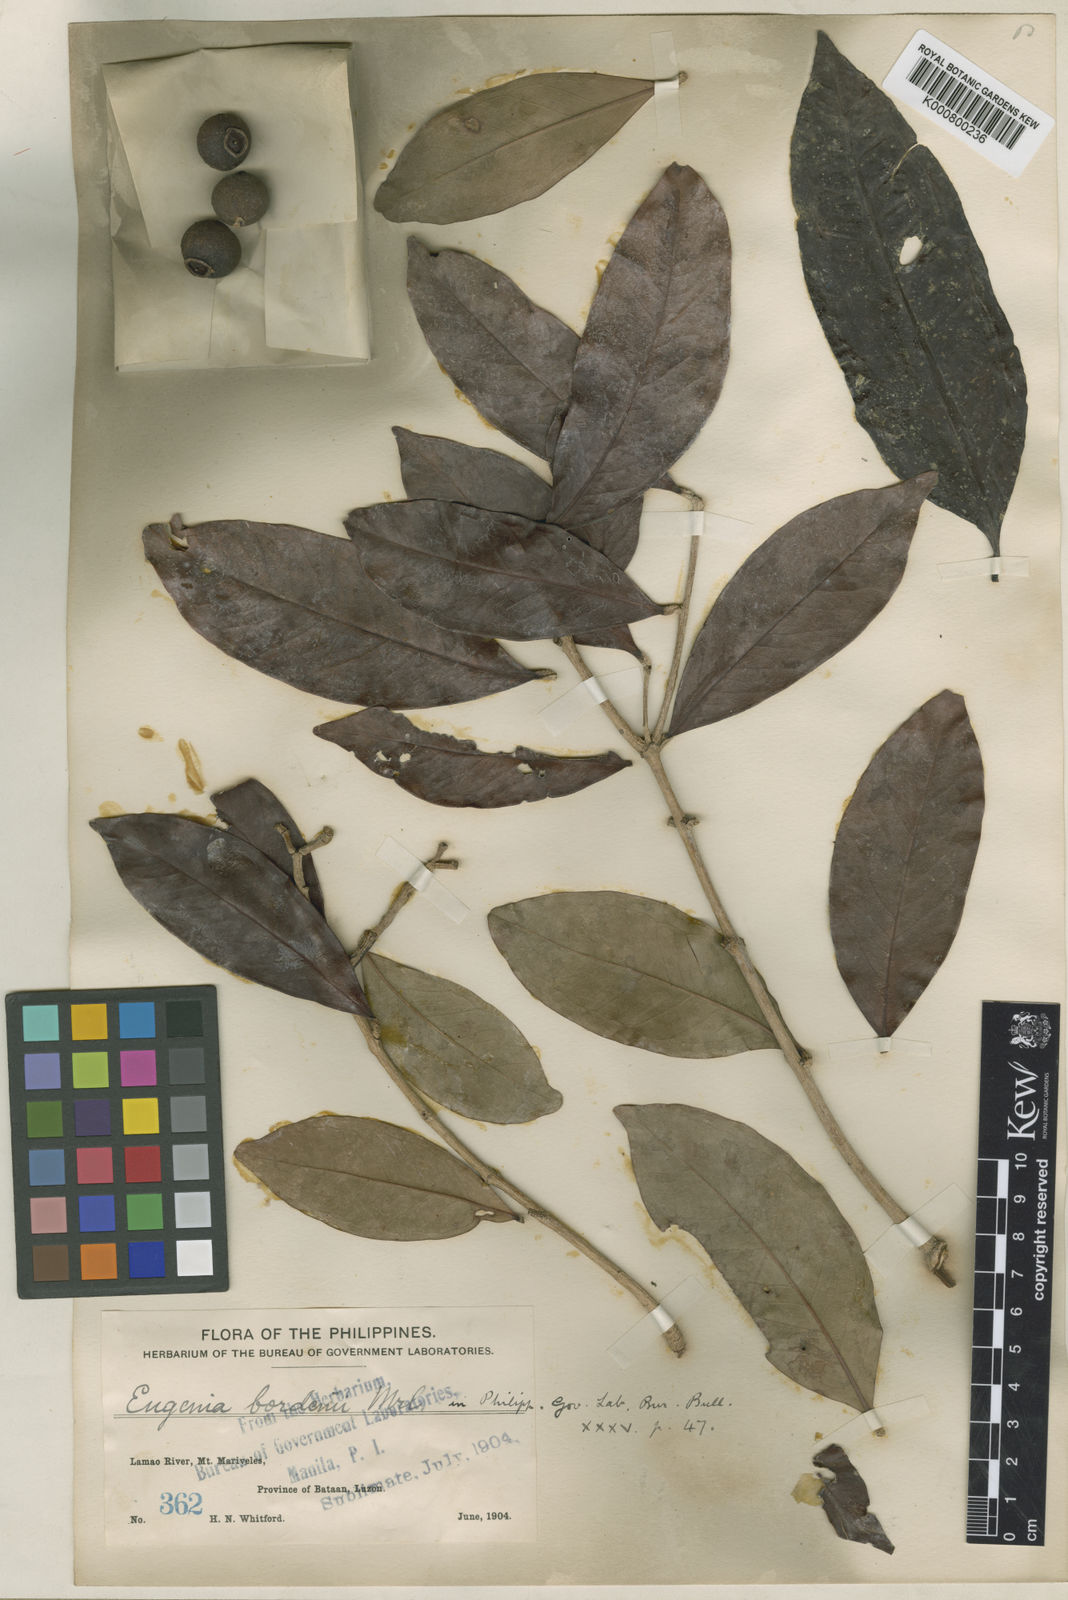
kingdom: Plantae
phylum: Tracheophyta
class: Magnoliopsida
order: Myrtales
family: Myrtaceae
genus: Syzygium
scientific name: Syzygium bordenii
